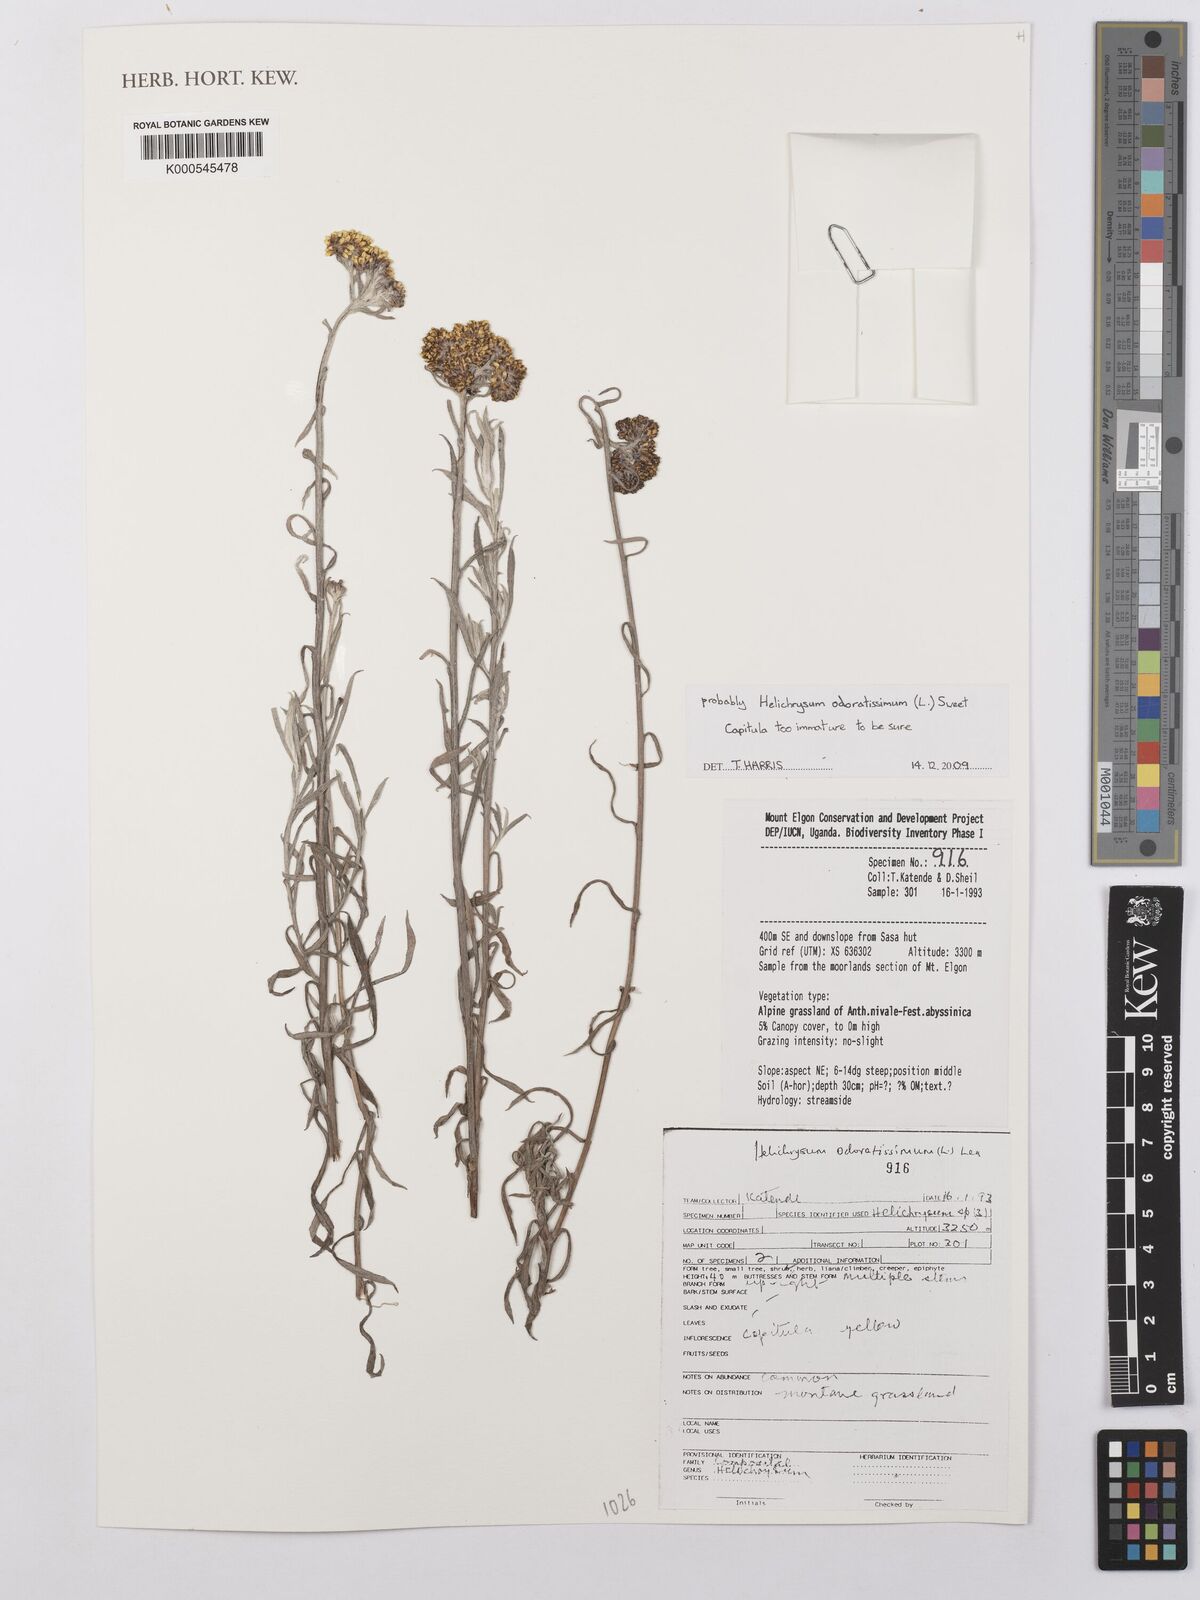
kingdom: Plantae
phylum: Tracheophyta
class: Magnoliopsida
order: Asterales
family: Asteraceae
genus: Helichrysum
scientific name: Helichrysum odoratissimum
